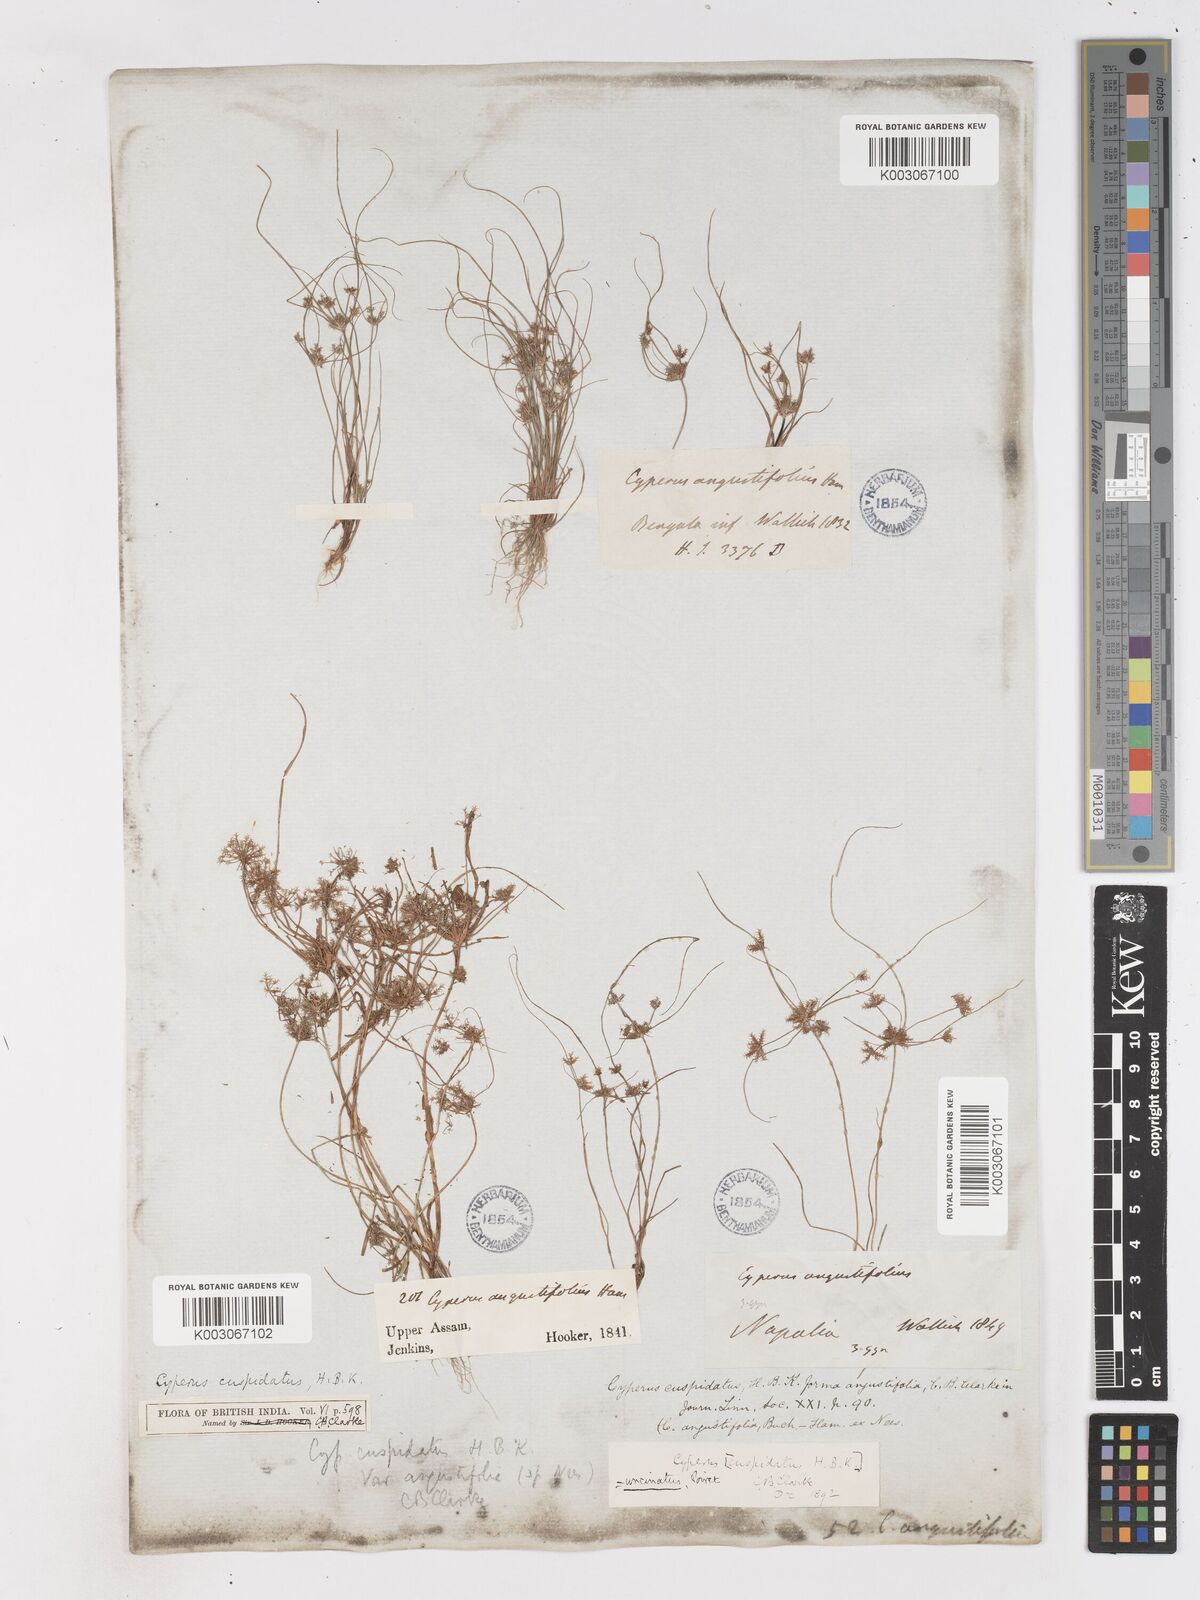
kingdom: Plantae
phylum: Tracheophyta
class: Liliopsida
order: Poales
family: Cyperaceae
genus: Cyperus
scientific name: Cyperus cuspidatus
